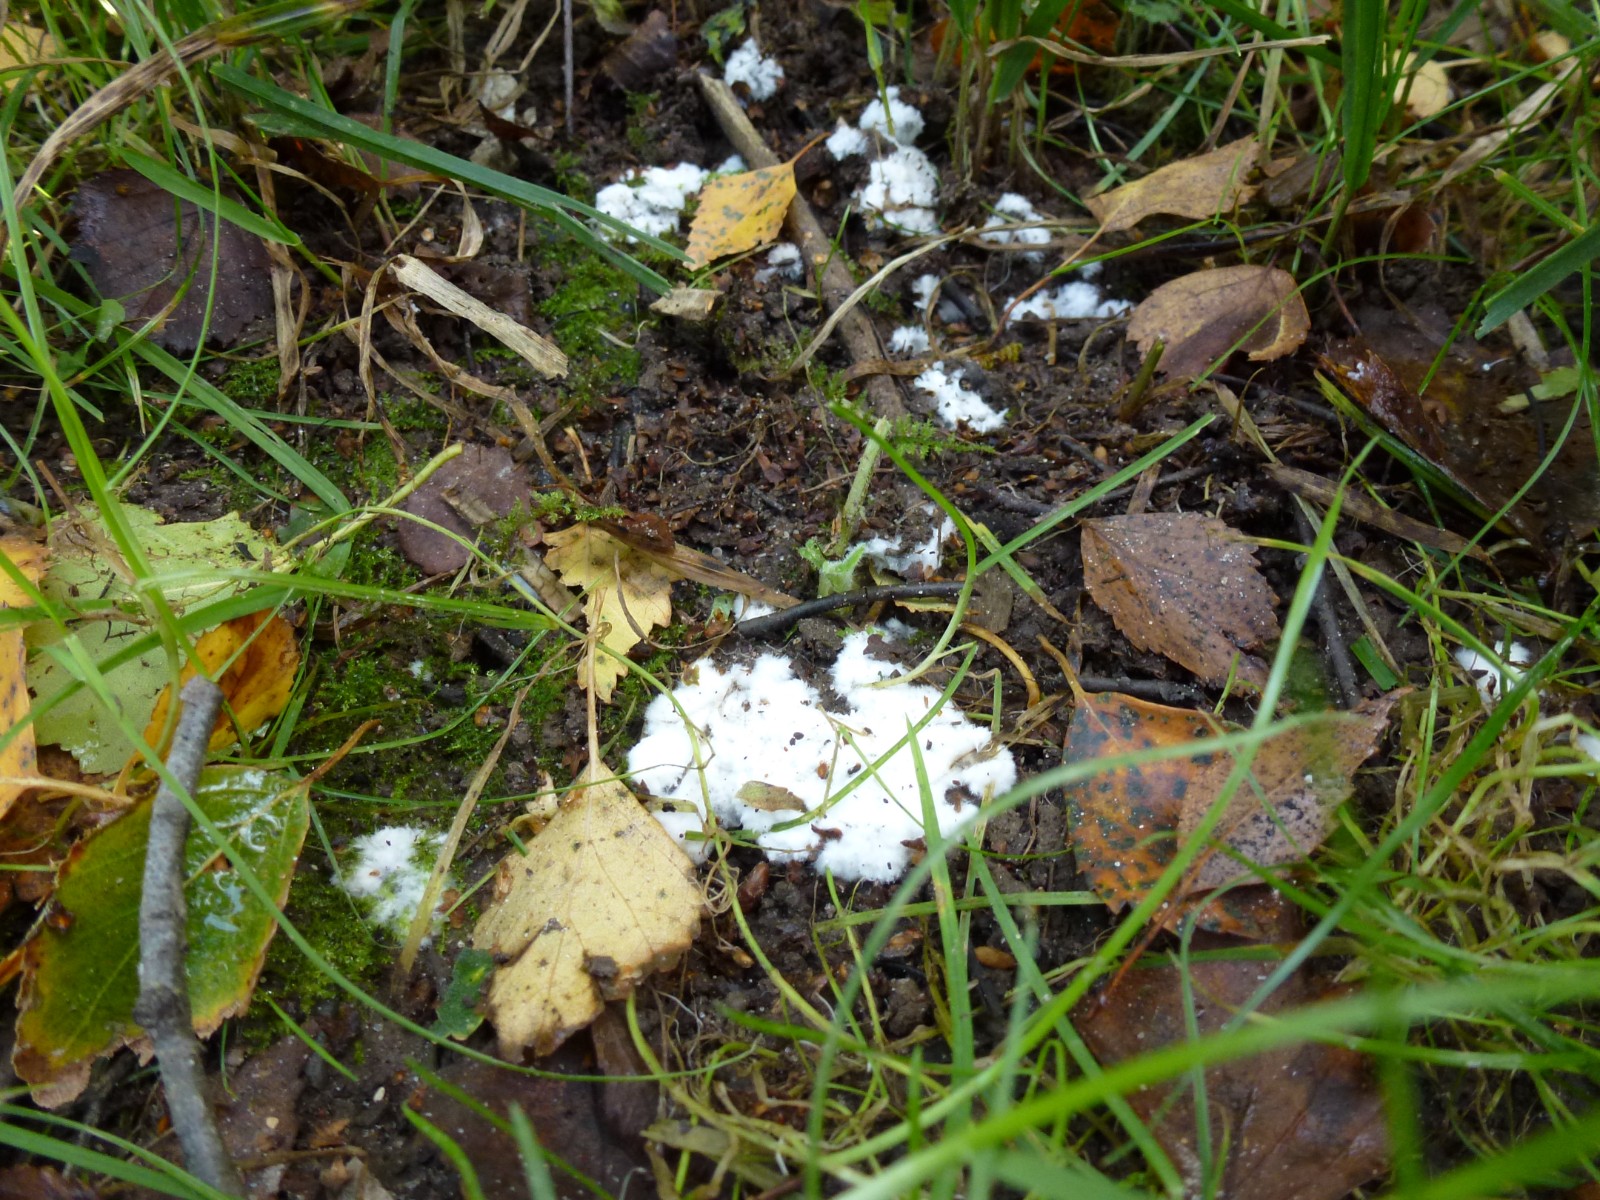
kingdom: Fungi
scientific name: Fungi
